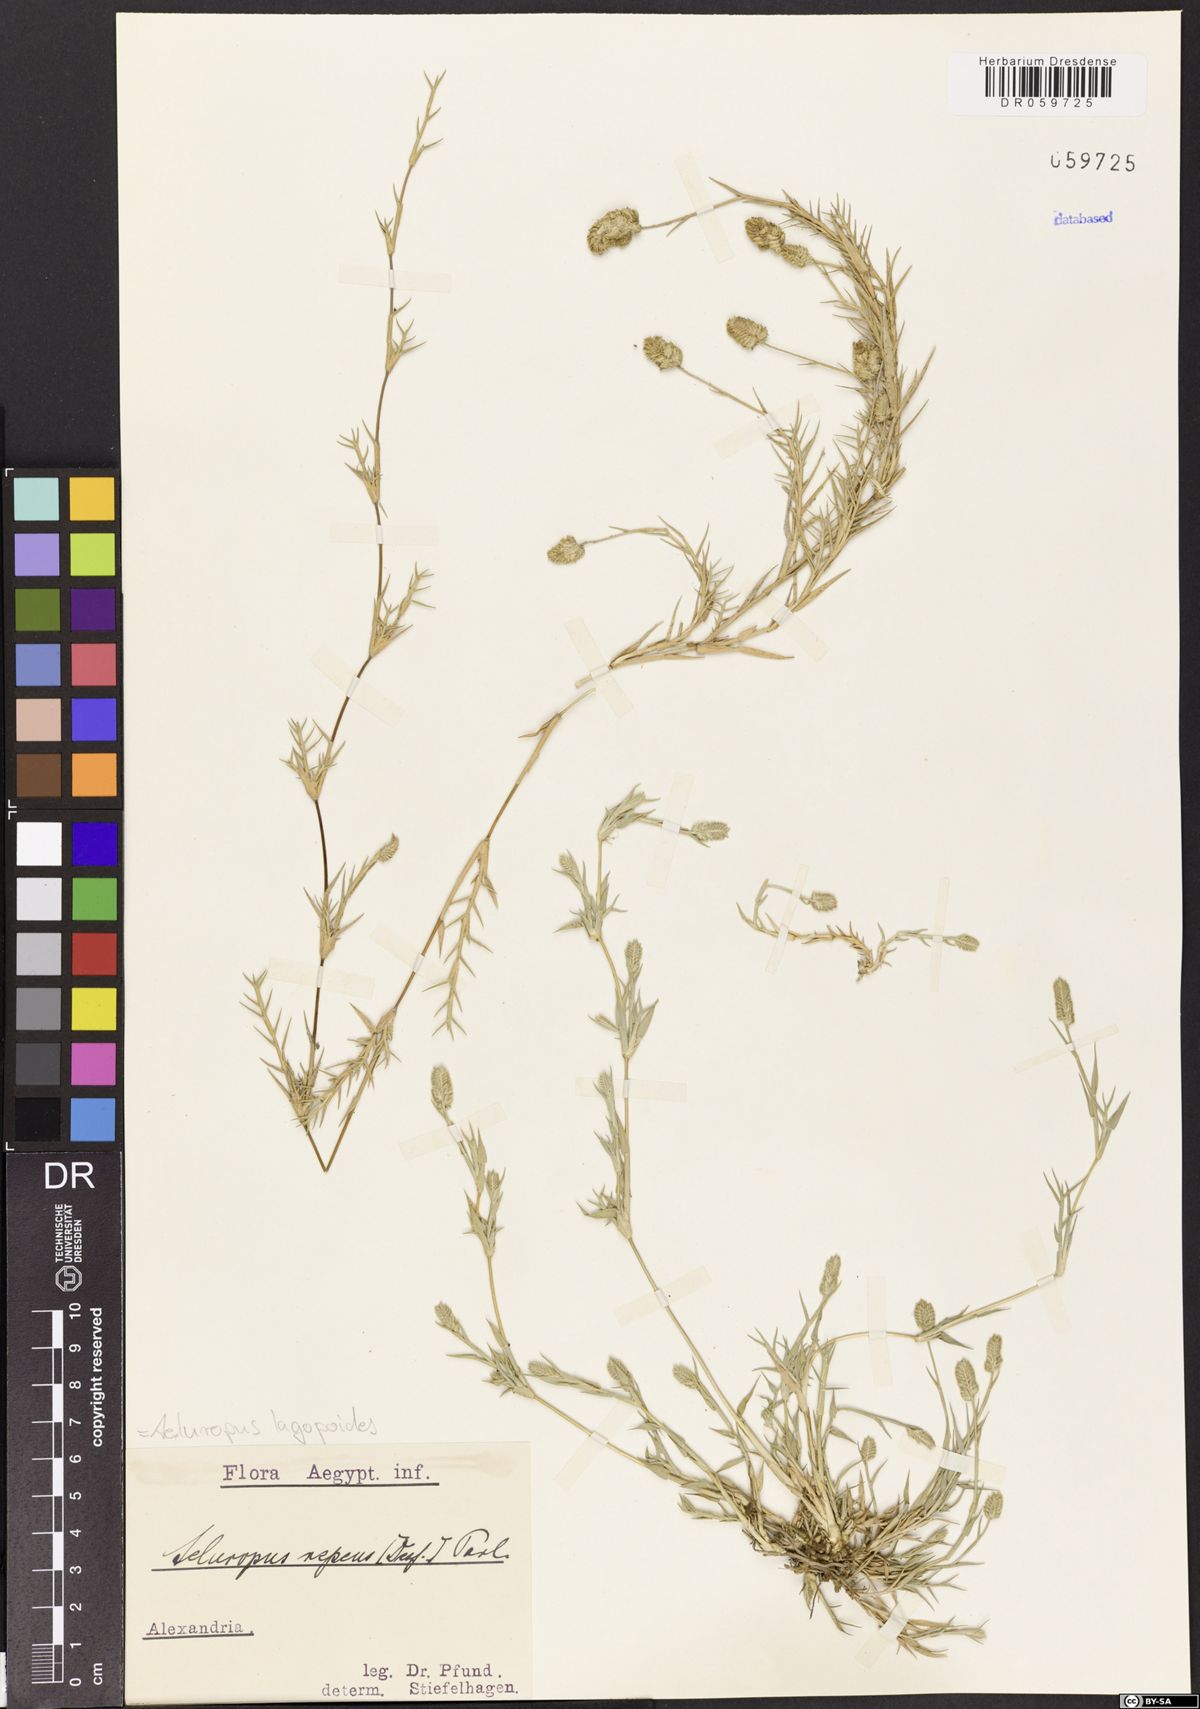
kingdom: Plantae
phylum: Tracheophyta
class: Liliopsida
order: Poales
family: Poaceae
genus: Aeluropus
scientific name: Aeluropus lagopoides
